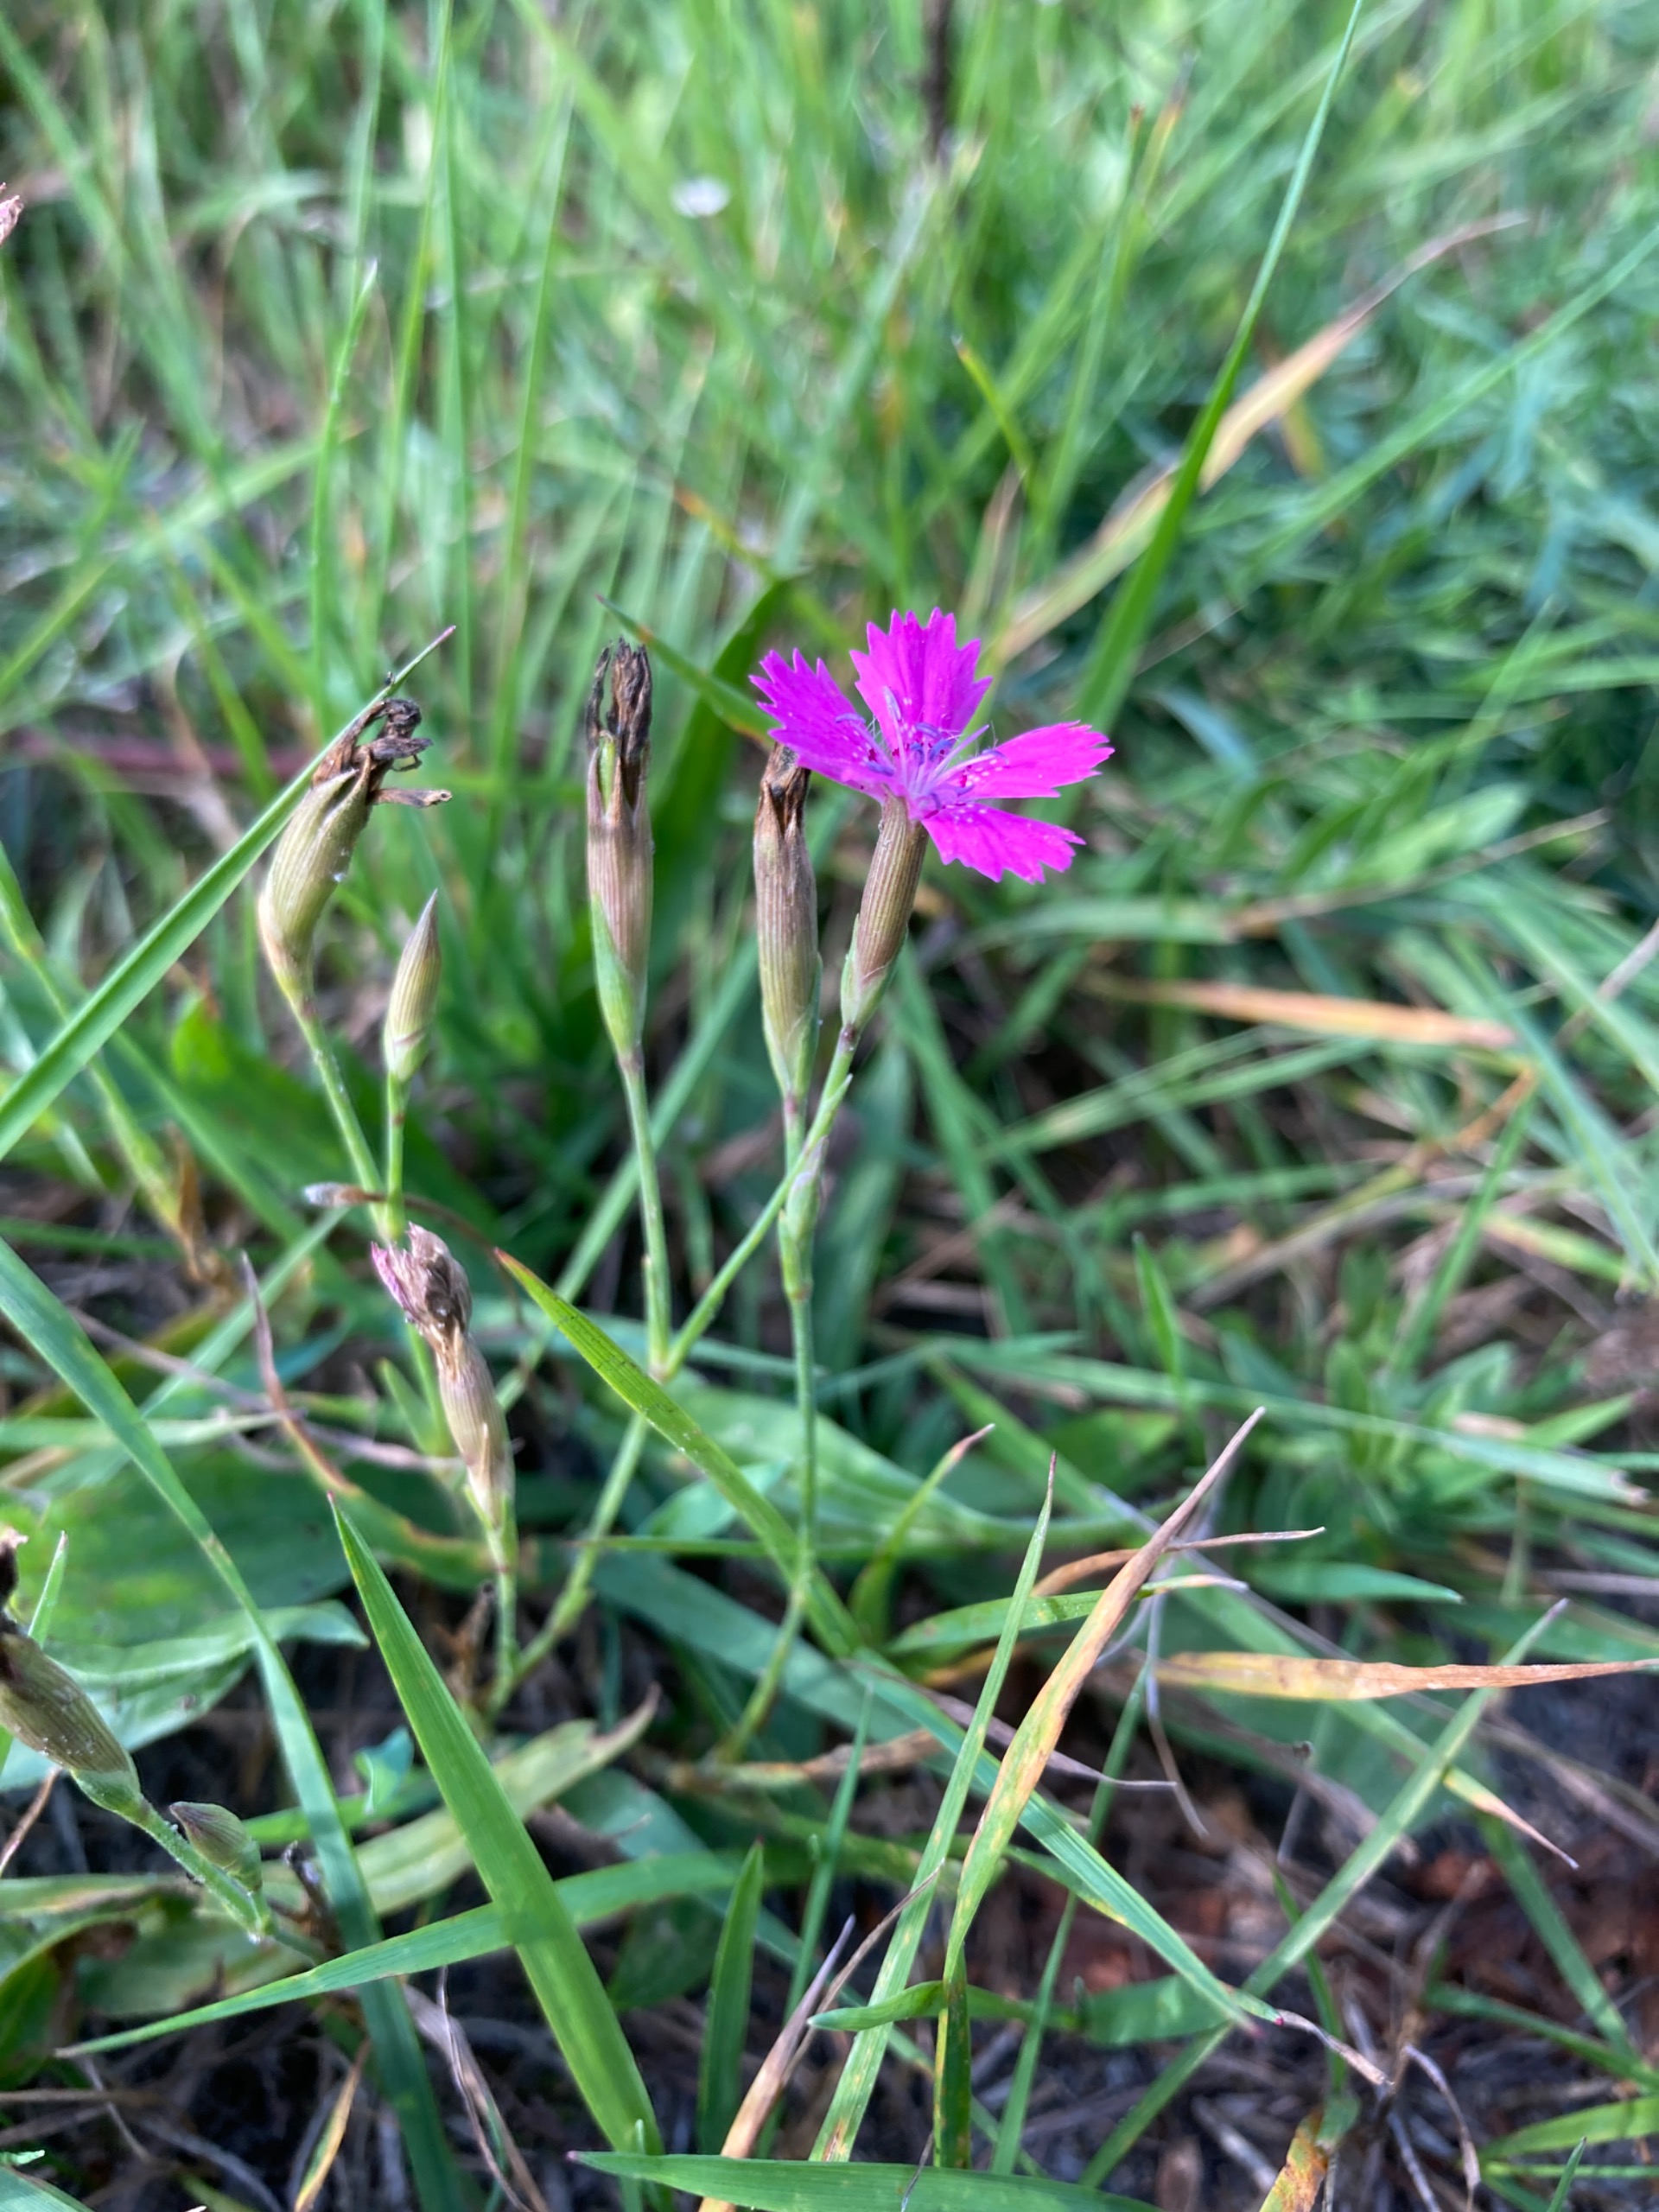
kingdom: Plantae
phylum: Tracheophyta
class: Magnoliopsida
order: Caryophyllales
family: Caryophyllaceae
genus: Dianthus
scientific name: Dianthus deltoides
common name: Bakke-nellike
